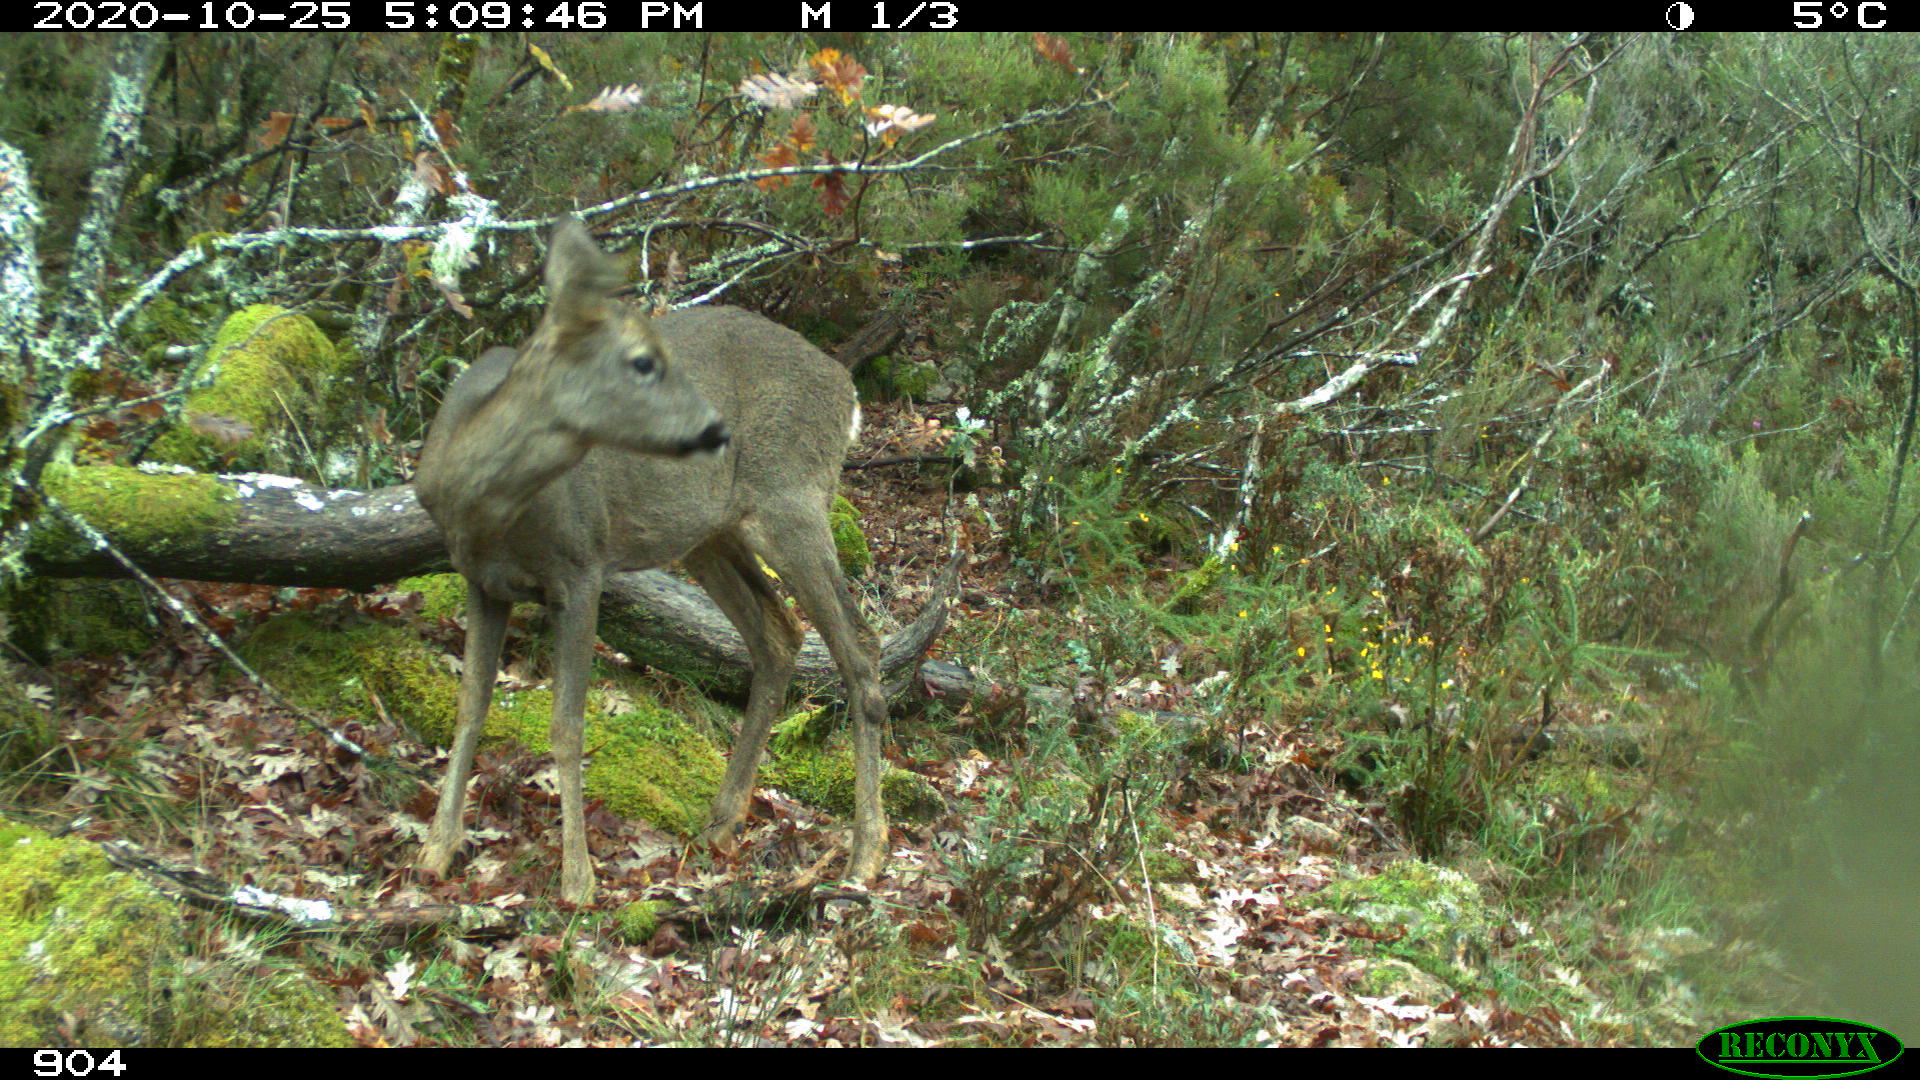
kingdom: Animalia
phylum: Chordata
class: Mammalia
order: Artiodactyla
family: Cervidae
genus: Capreolus
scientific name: Capreolus capreolus
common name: Western roe deer
